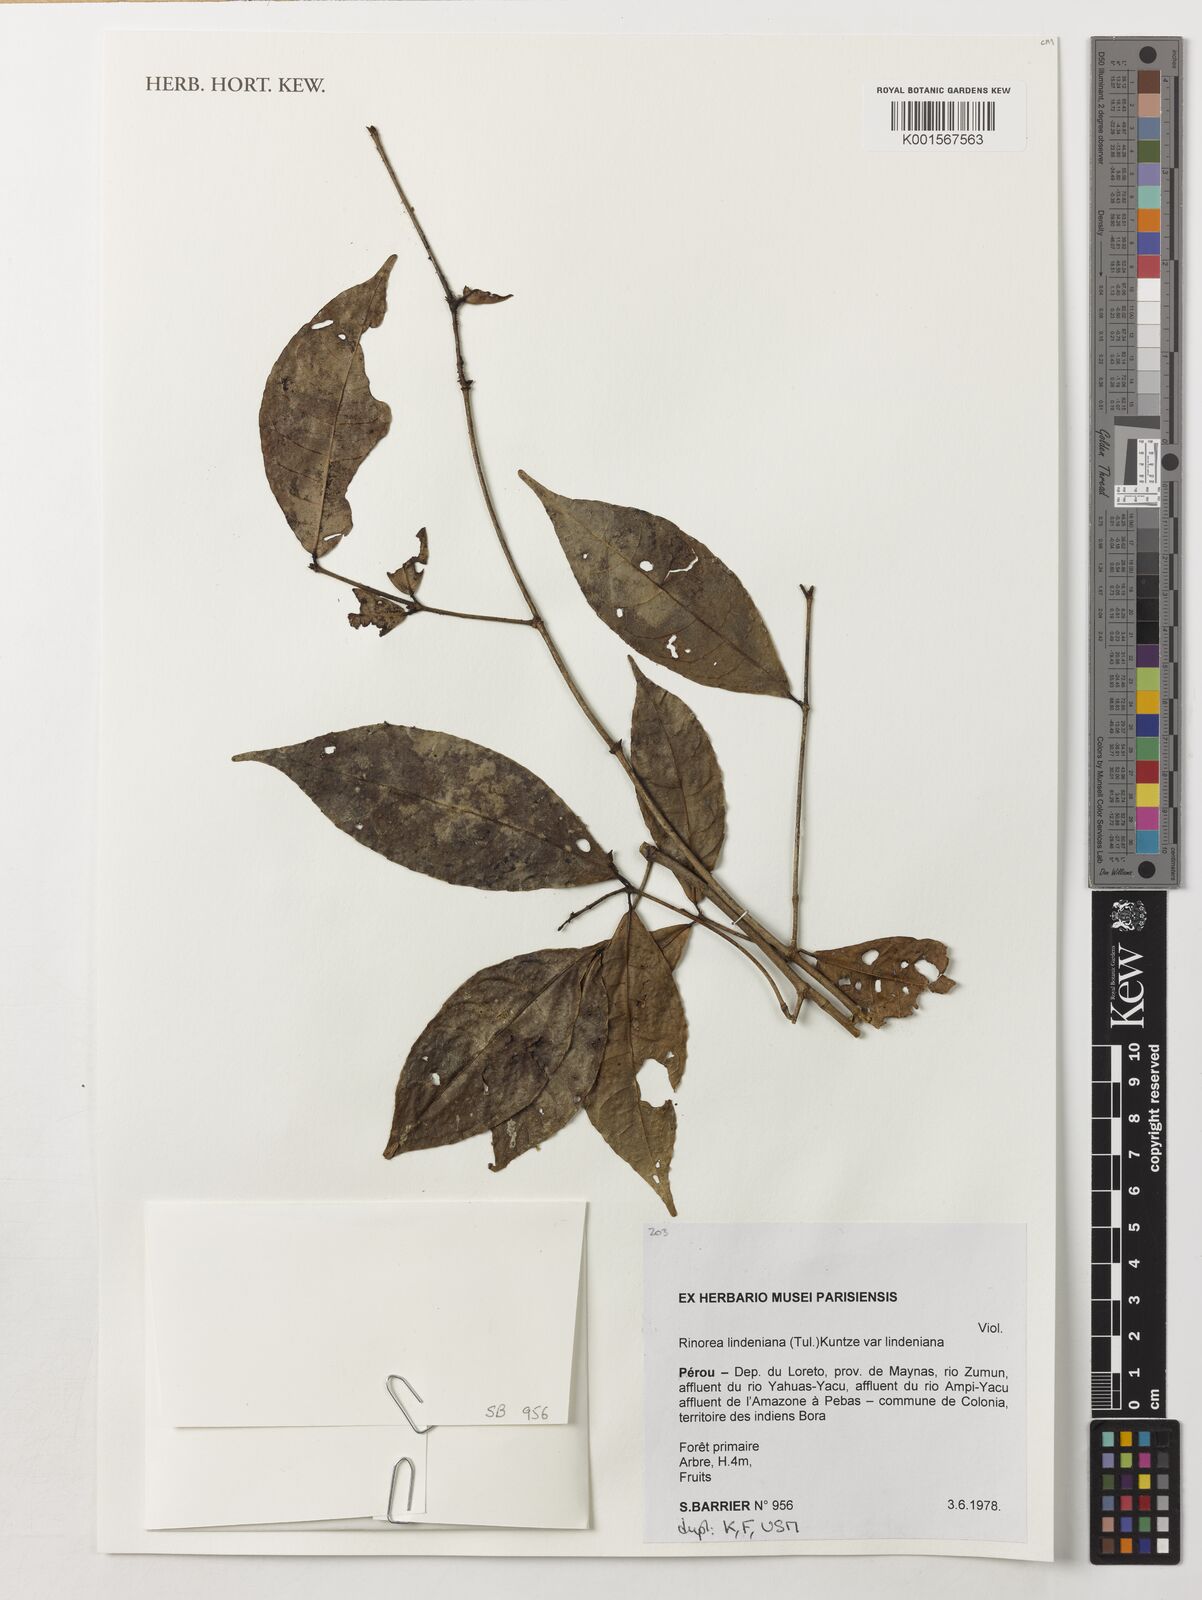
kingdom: Plantae
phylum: Tracheophyta
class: Magnoliopsida
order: Malpighiales
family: Violaceae
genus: Rinorea
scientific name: Rinorea lindeniana
